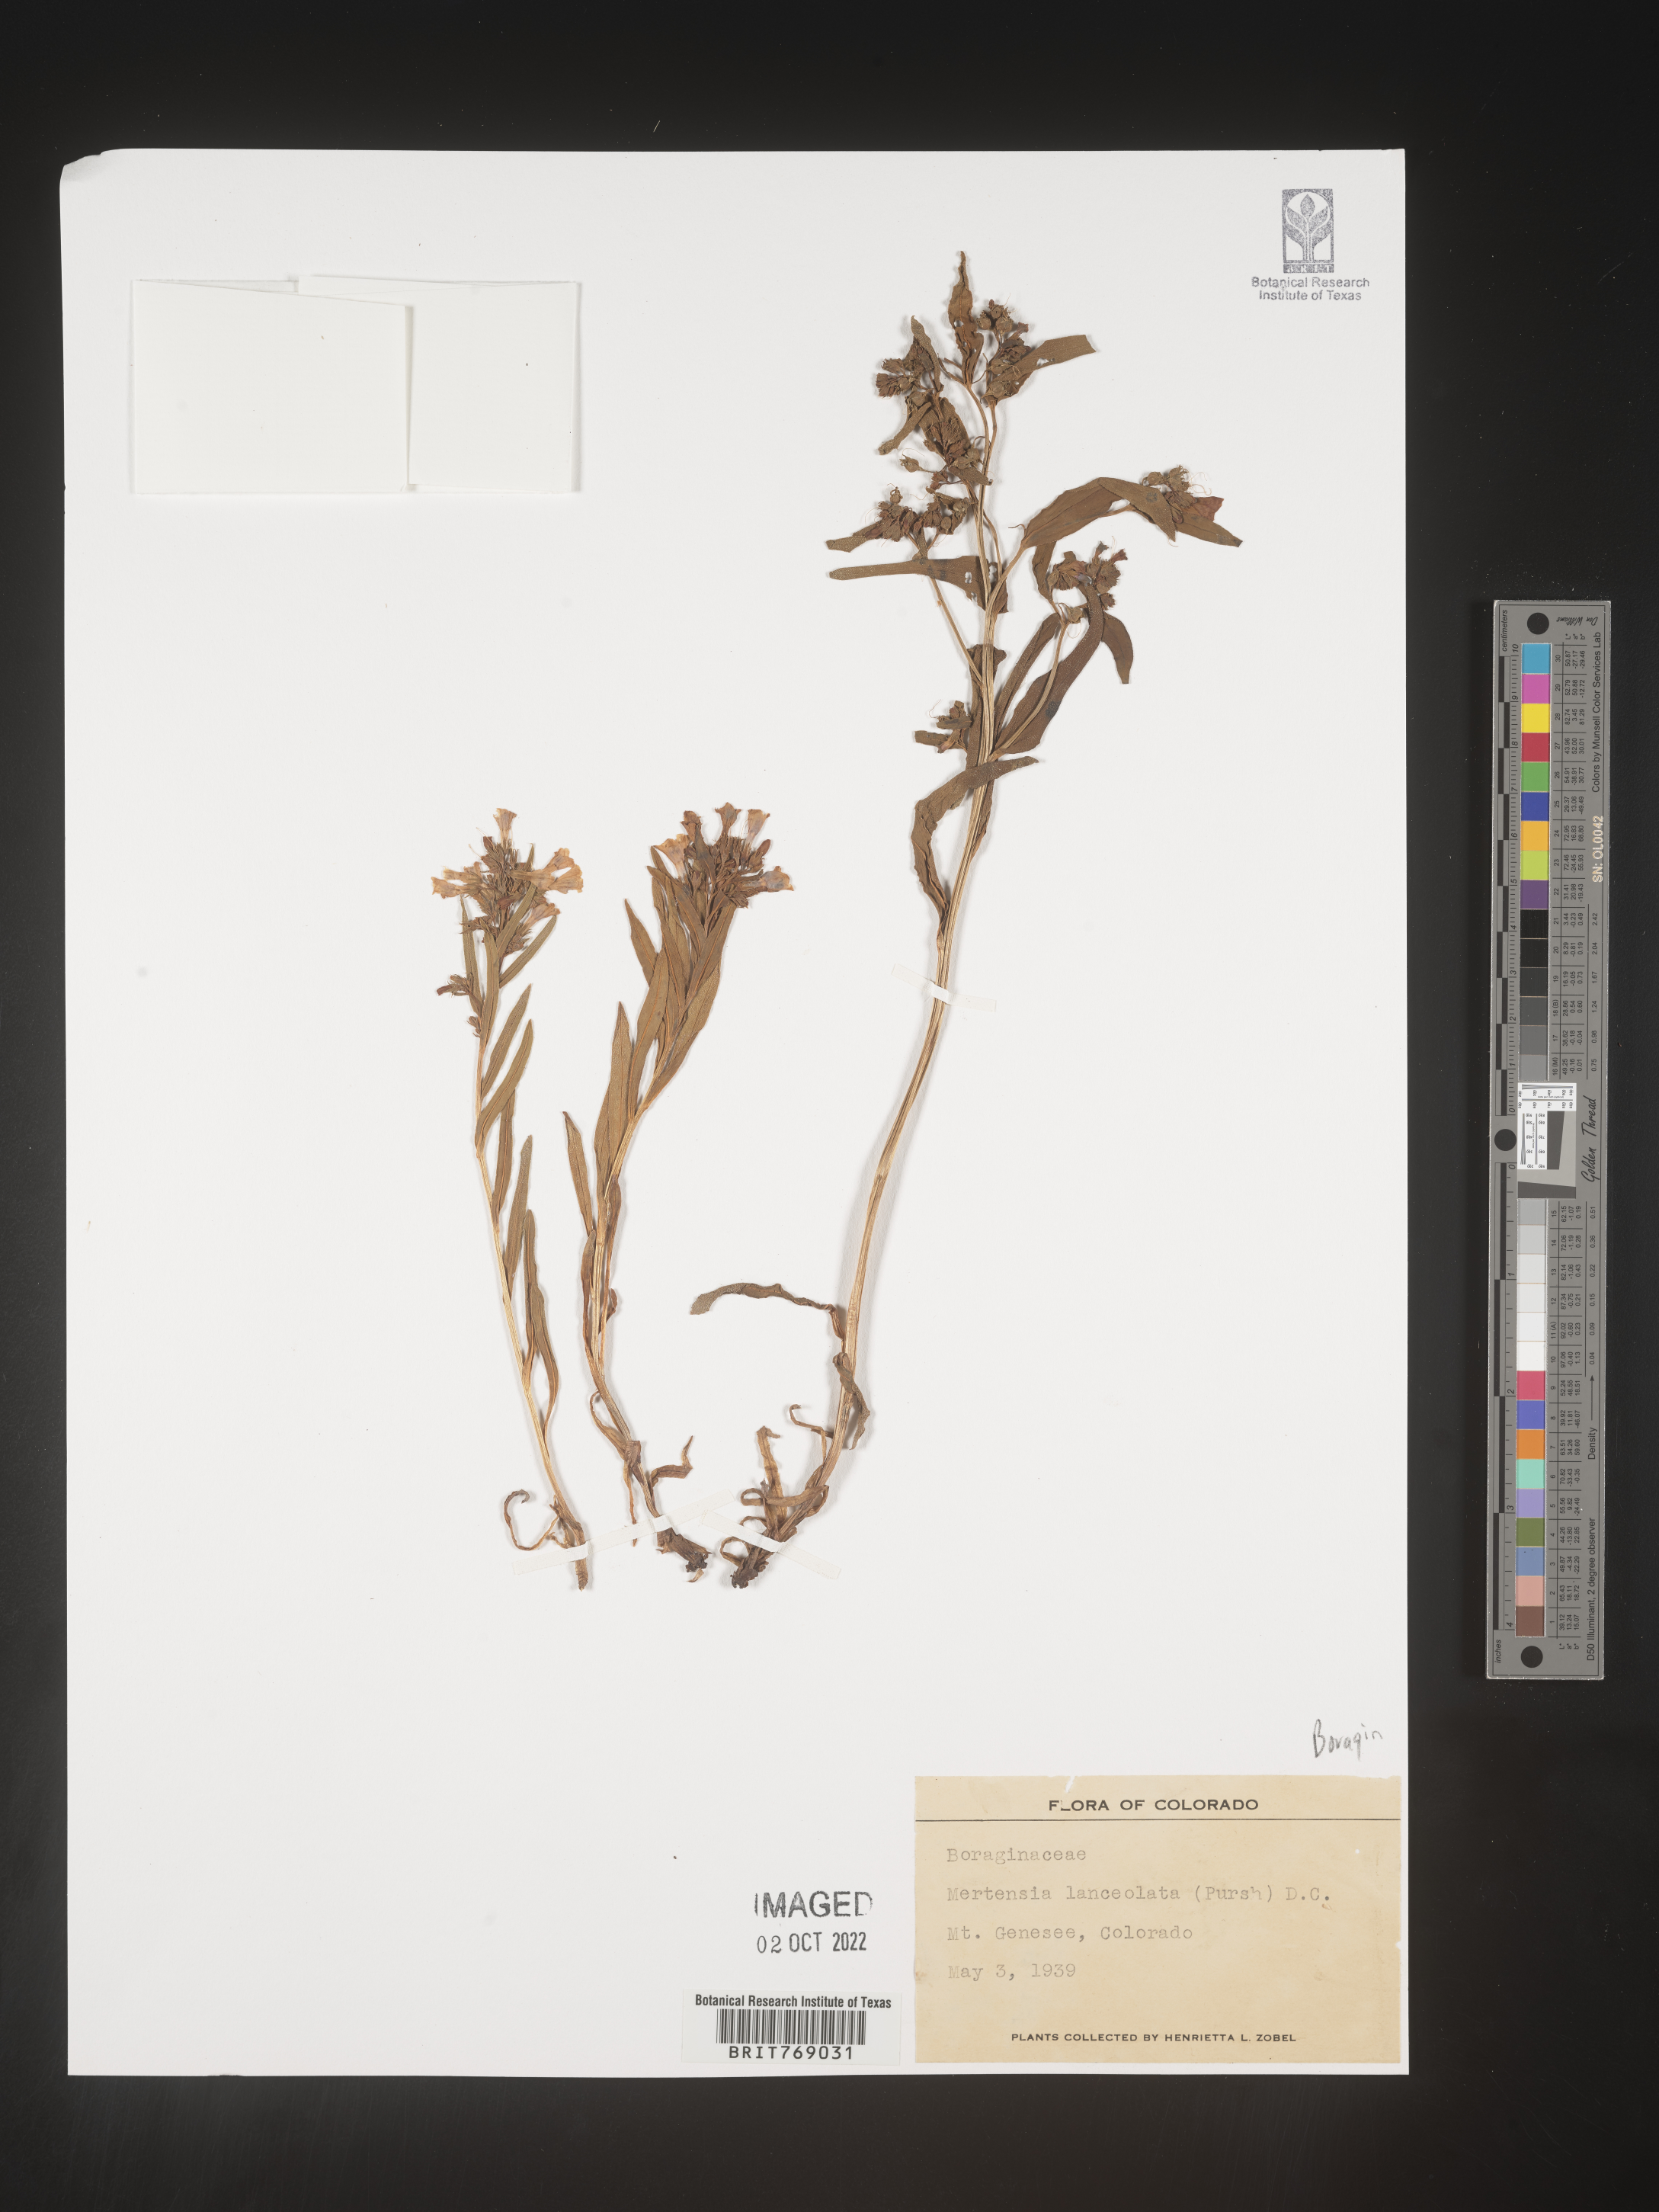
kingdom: Plantae
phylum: Tracheophyta
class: Magnoliopsida
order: Boraginales
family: Boraginaceae
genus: Mertensia
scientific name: Mertensia
